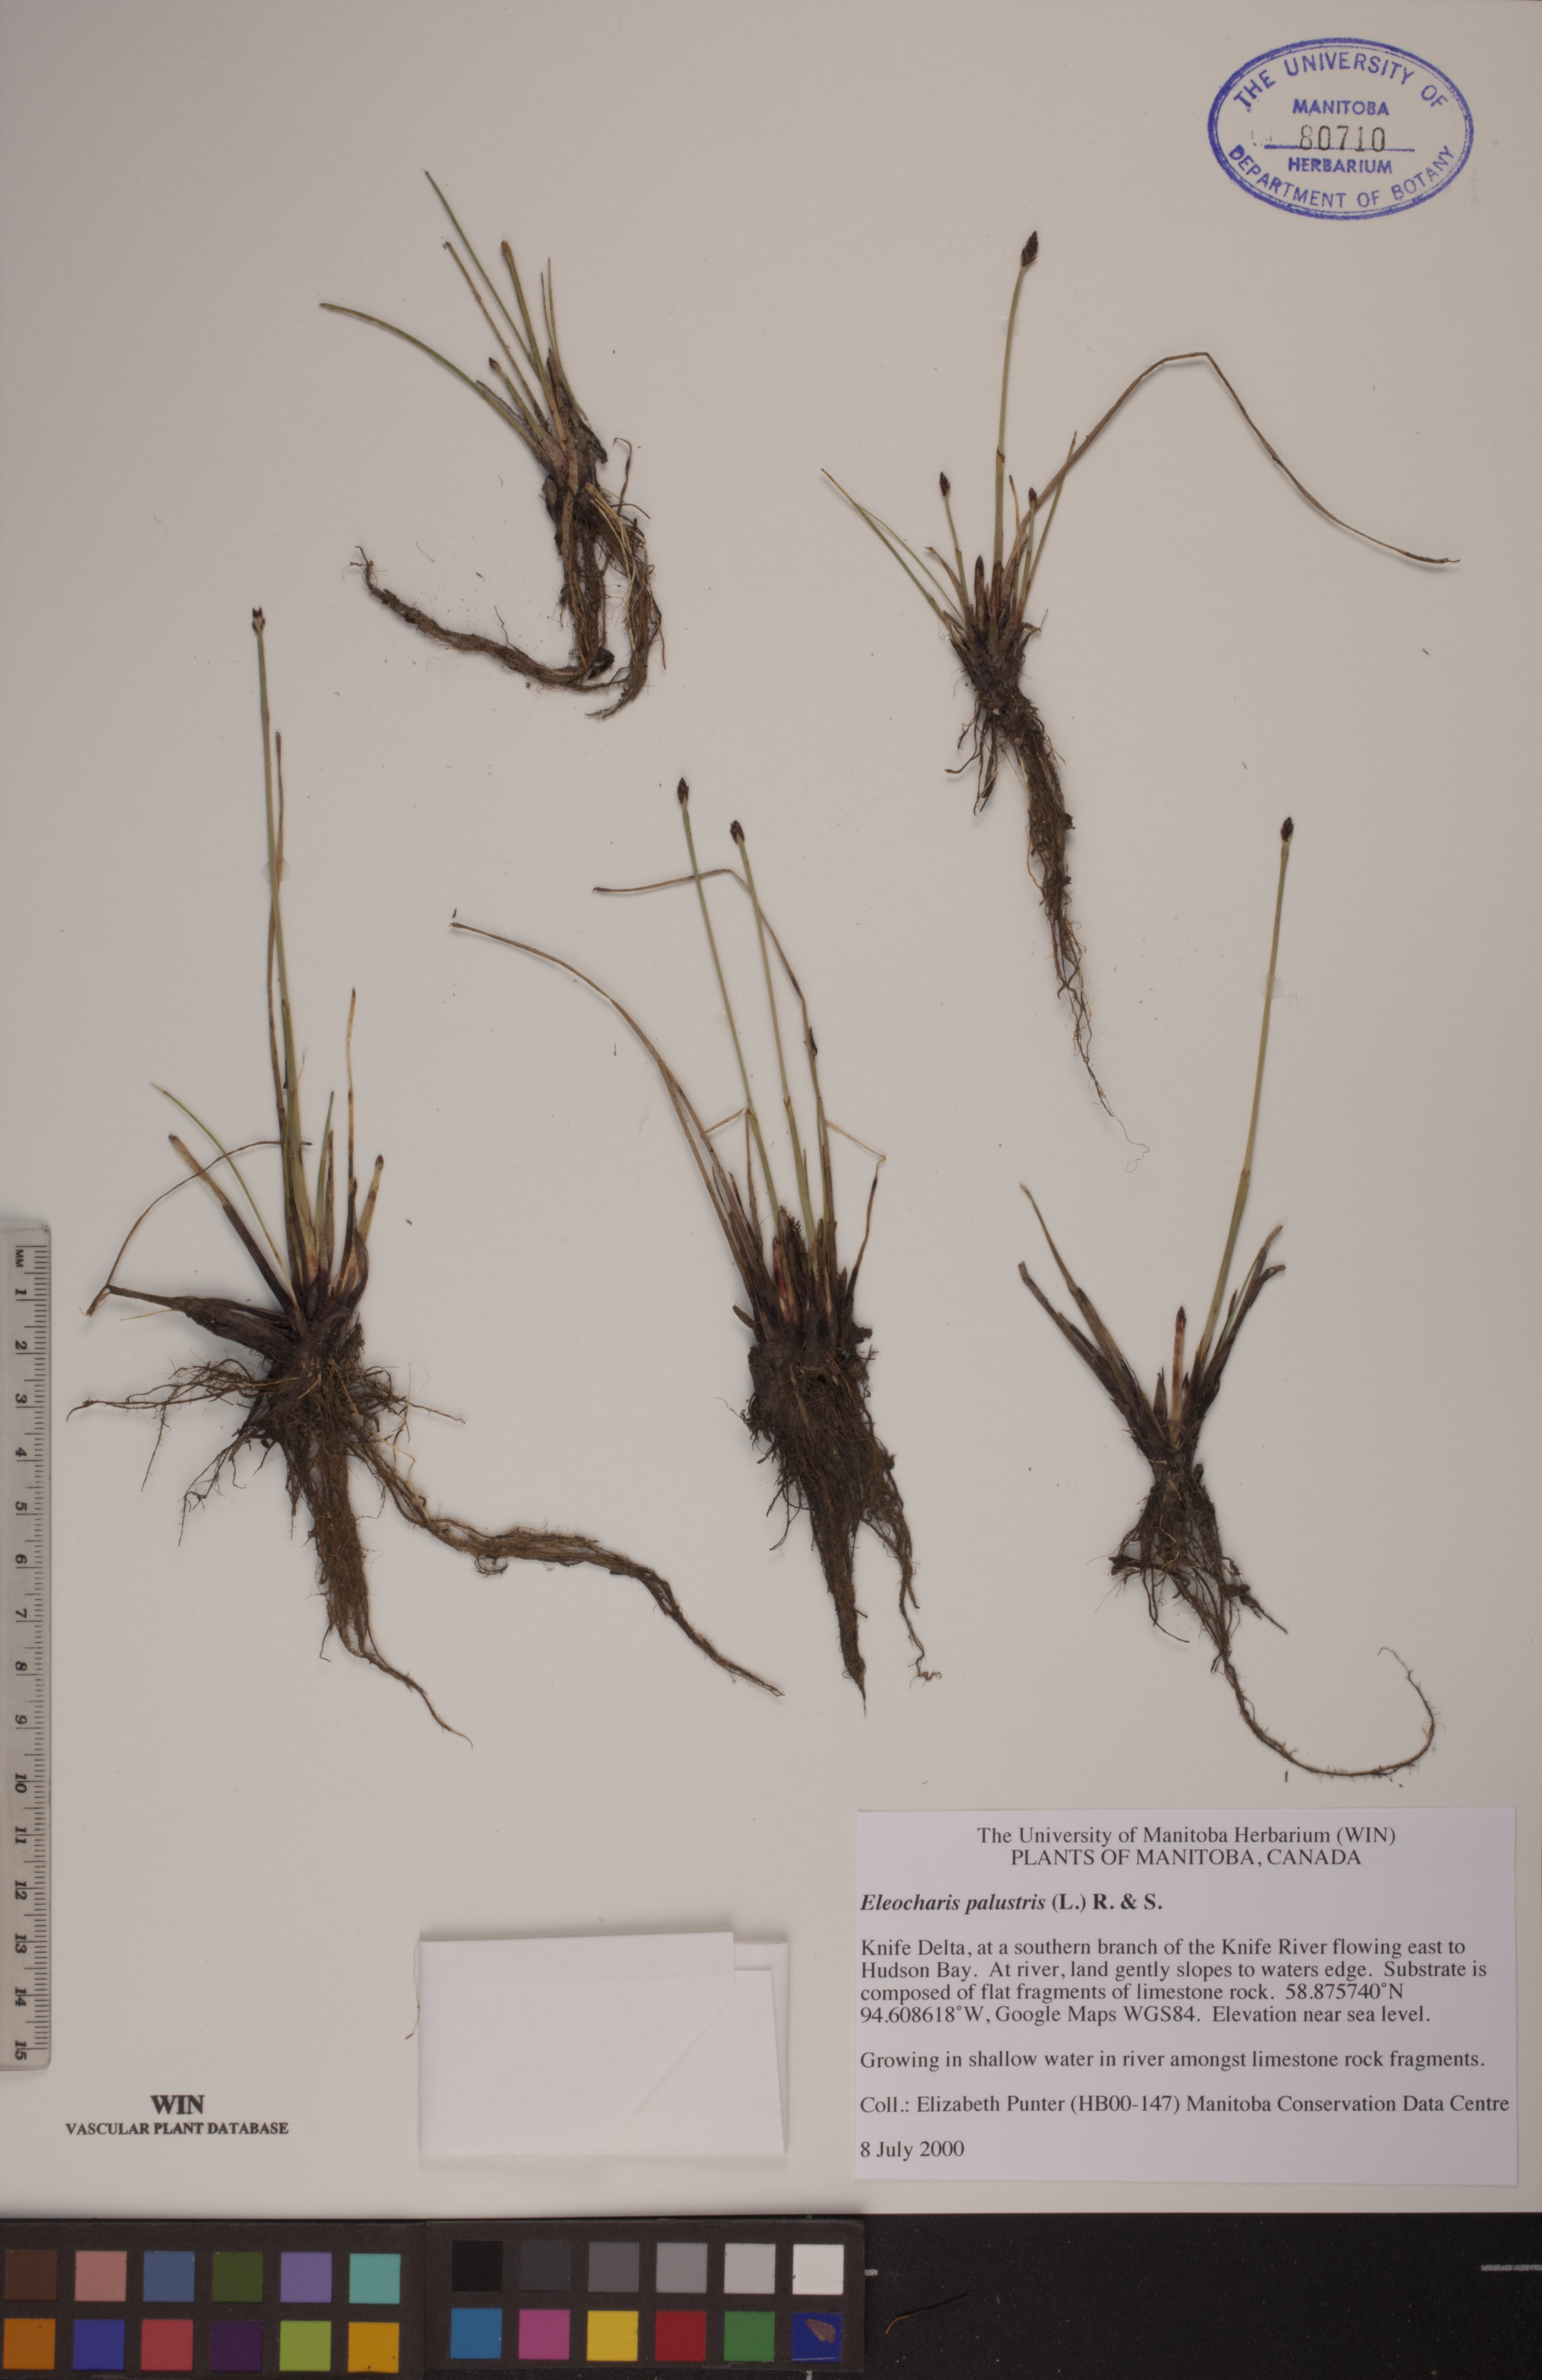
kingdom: Plantae
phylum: Tracheophyta
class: Liliopsida
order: Poales
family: Cyperaceae
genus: Eleocharis
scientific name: Eleocharis palustris
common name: Common spike-rush
